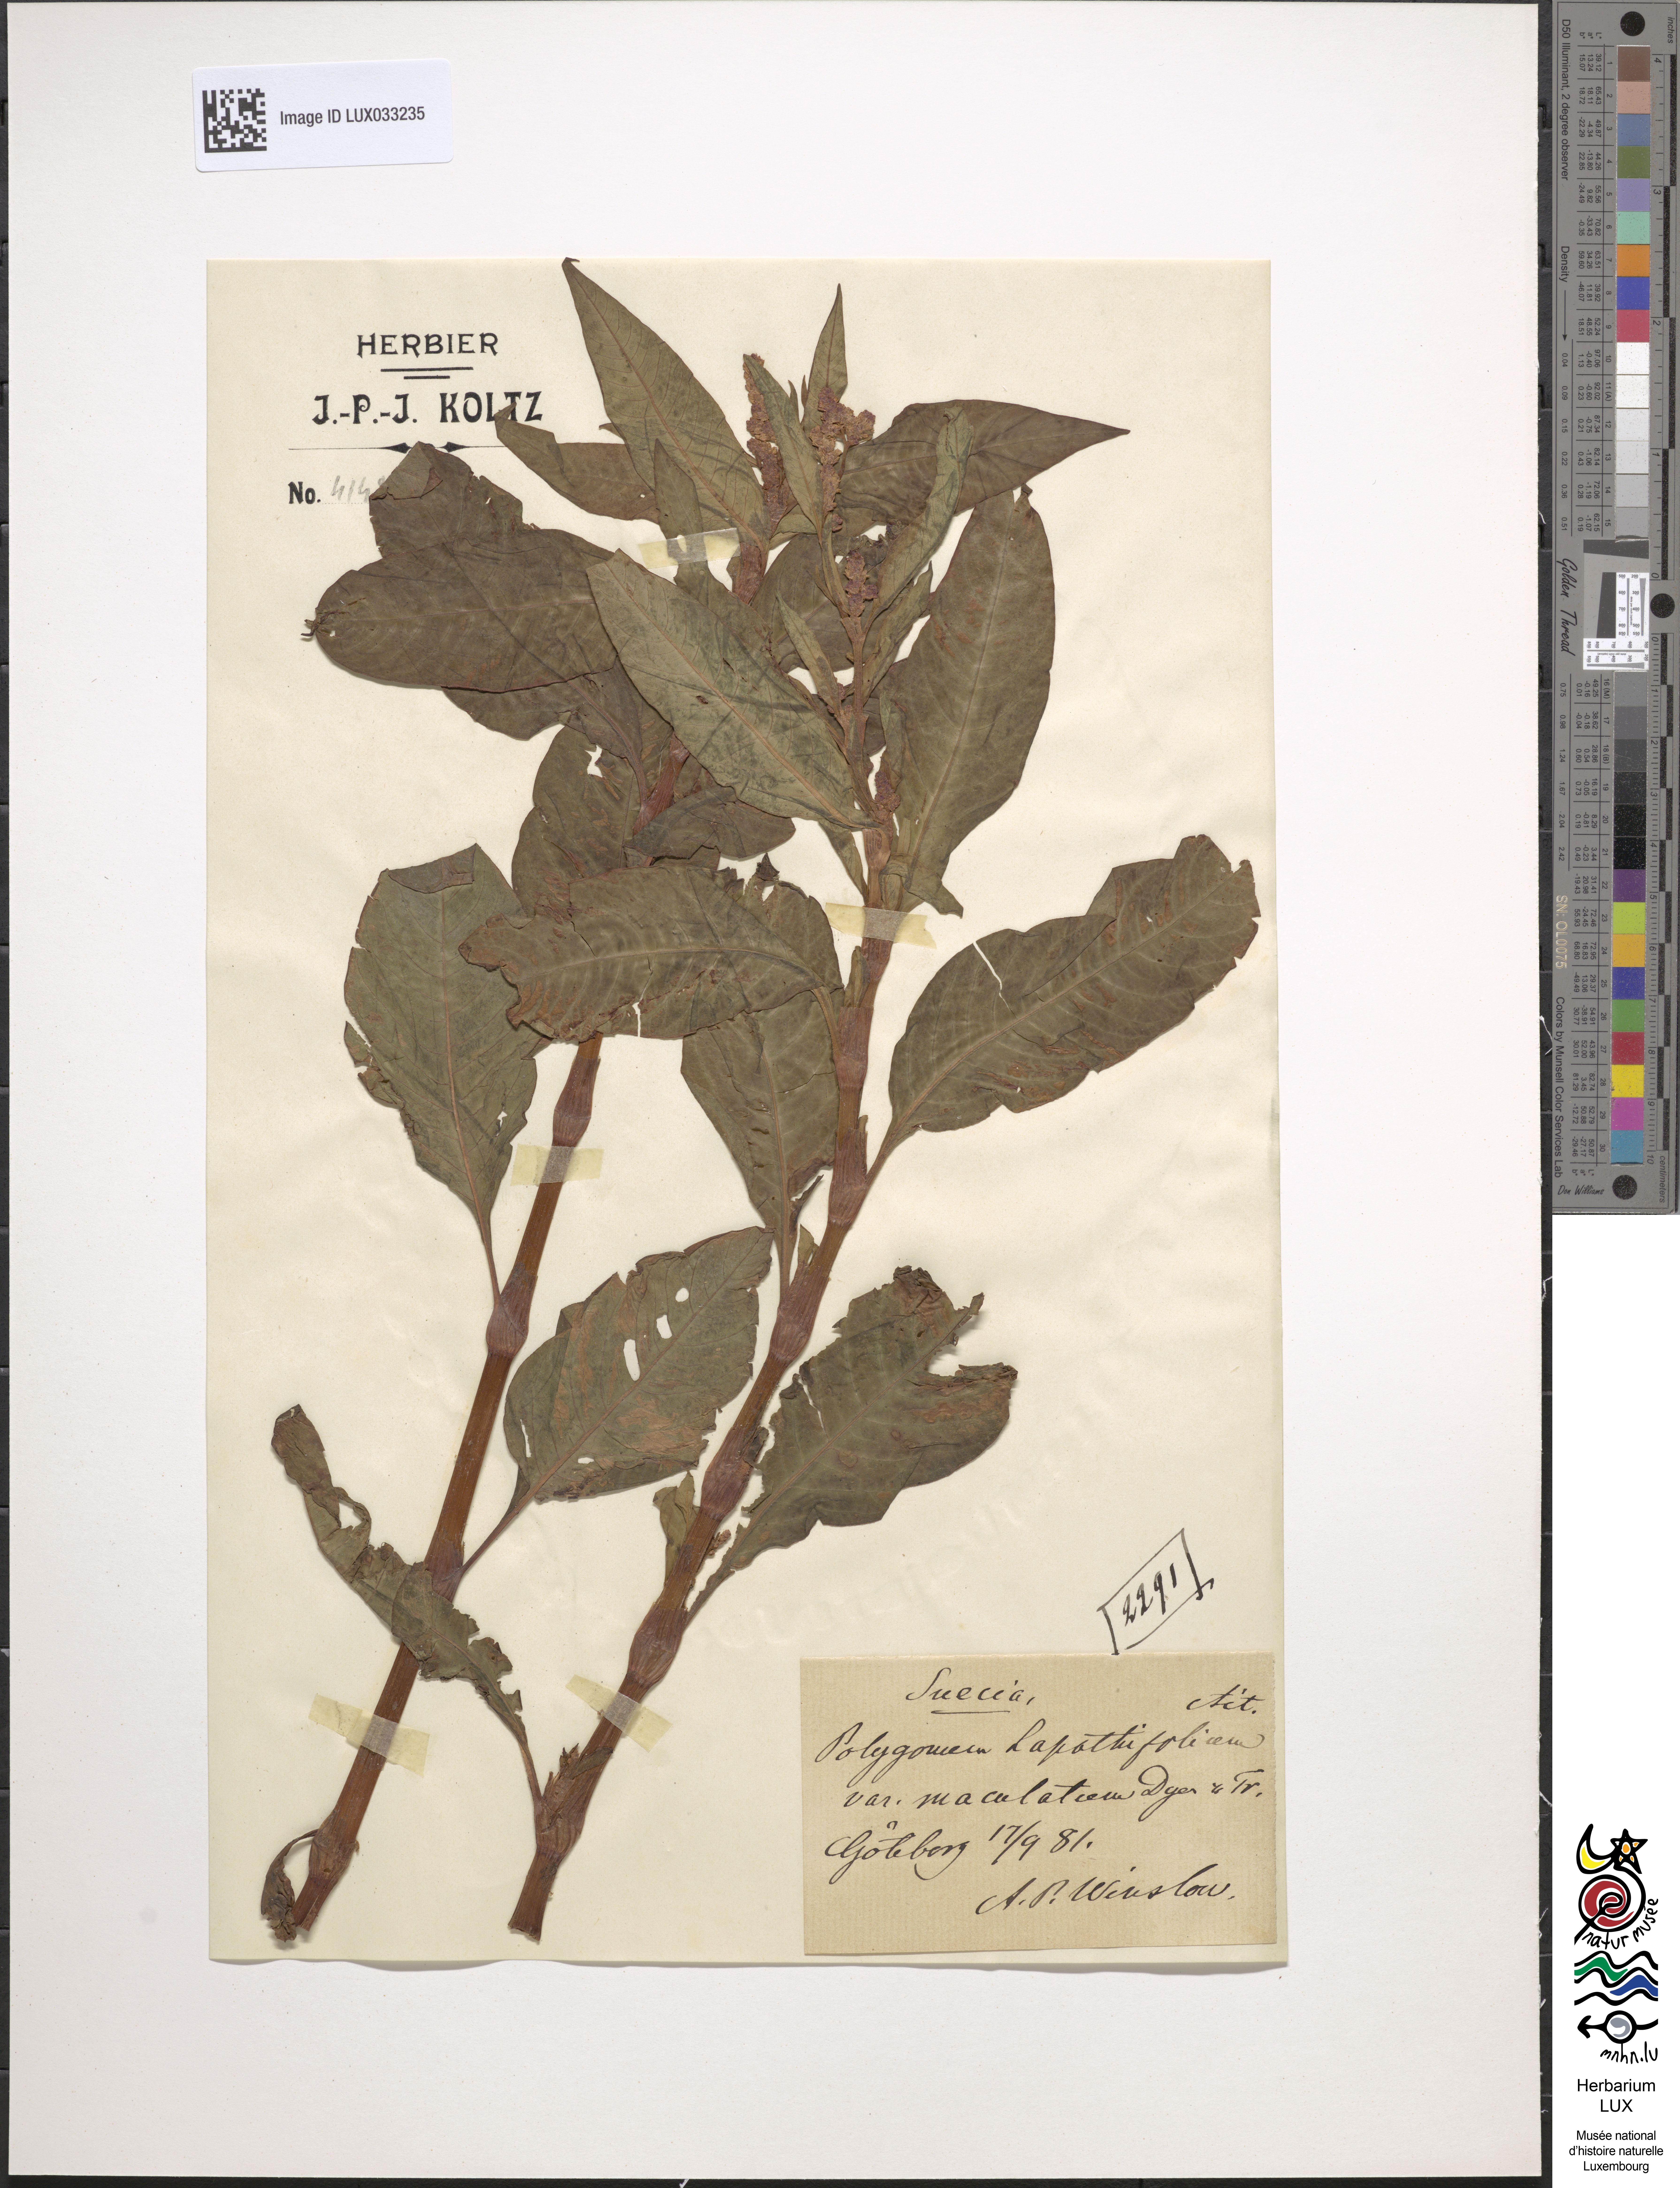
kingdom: Plantae
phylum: Tracheophyta
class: Magnoliopsida
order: Caryophyllales
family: Polygonaceae
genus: Persicaria
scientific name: Persicaria lapathifolia
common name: Curlytop knotweed
